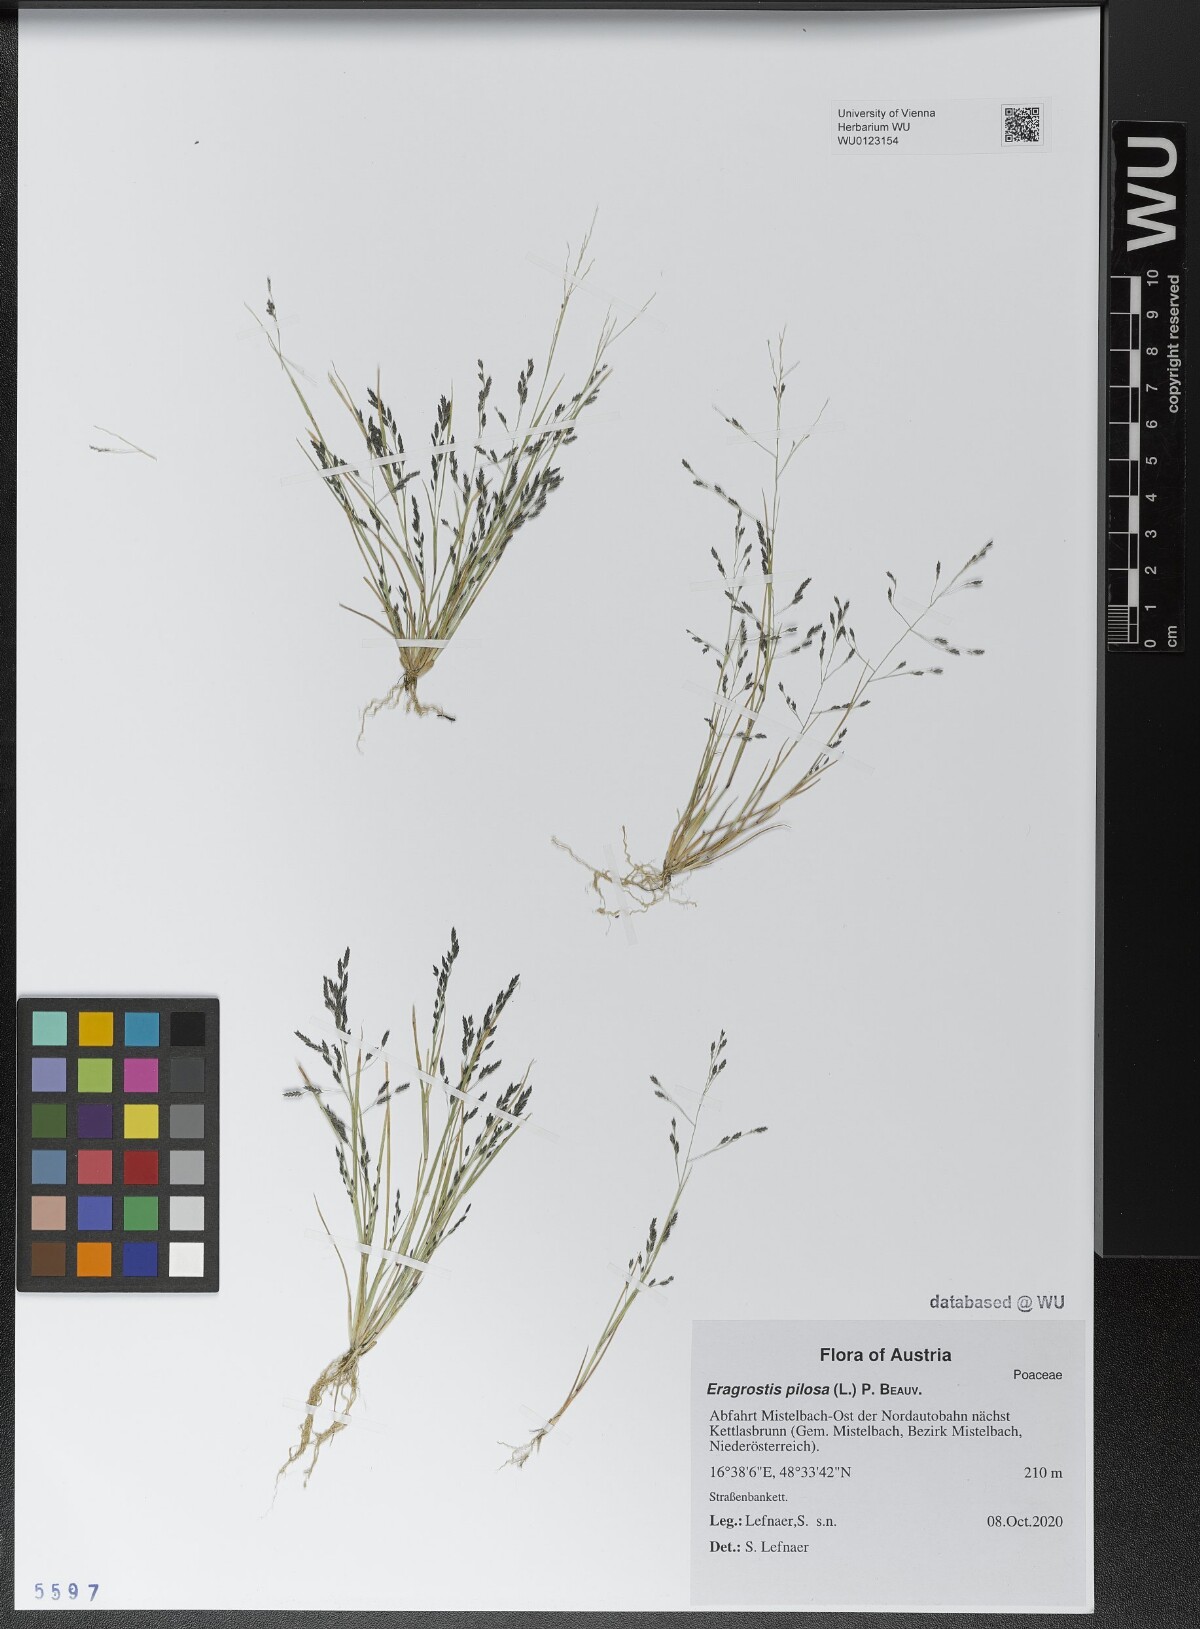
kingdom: Plantae
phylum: Tracheophyta
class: Liliopsida
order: Poales
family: Poaceae
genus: Eragrostis
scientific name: Eragrostis pilosa
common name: Indian lovegrass
